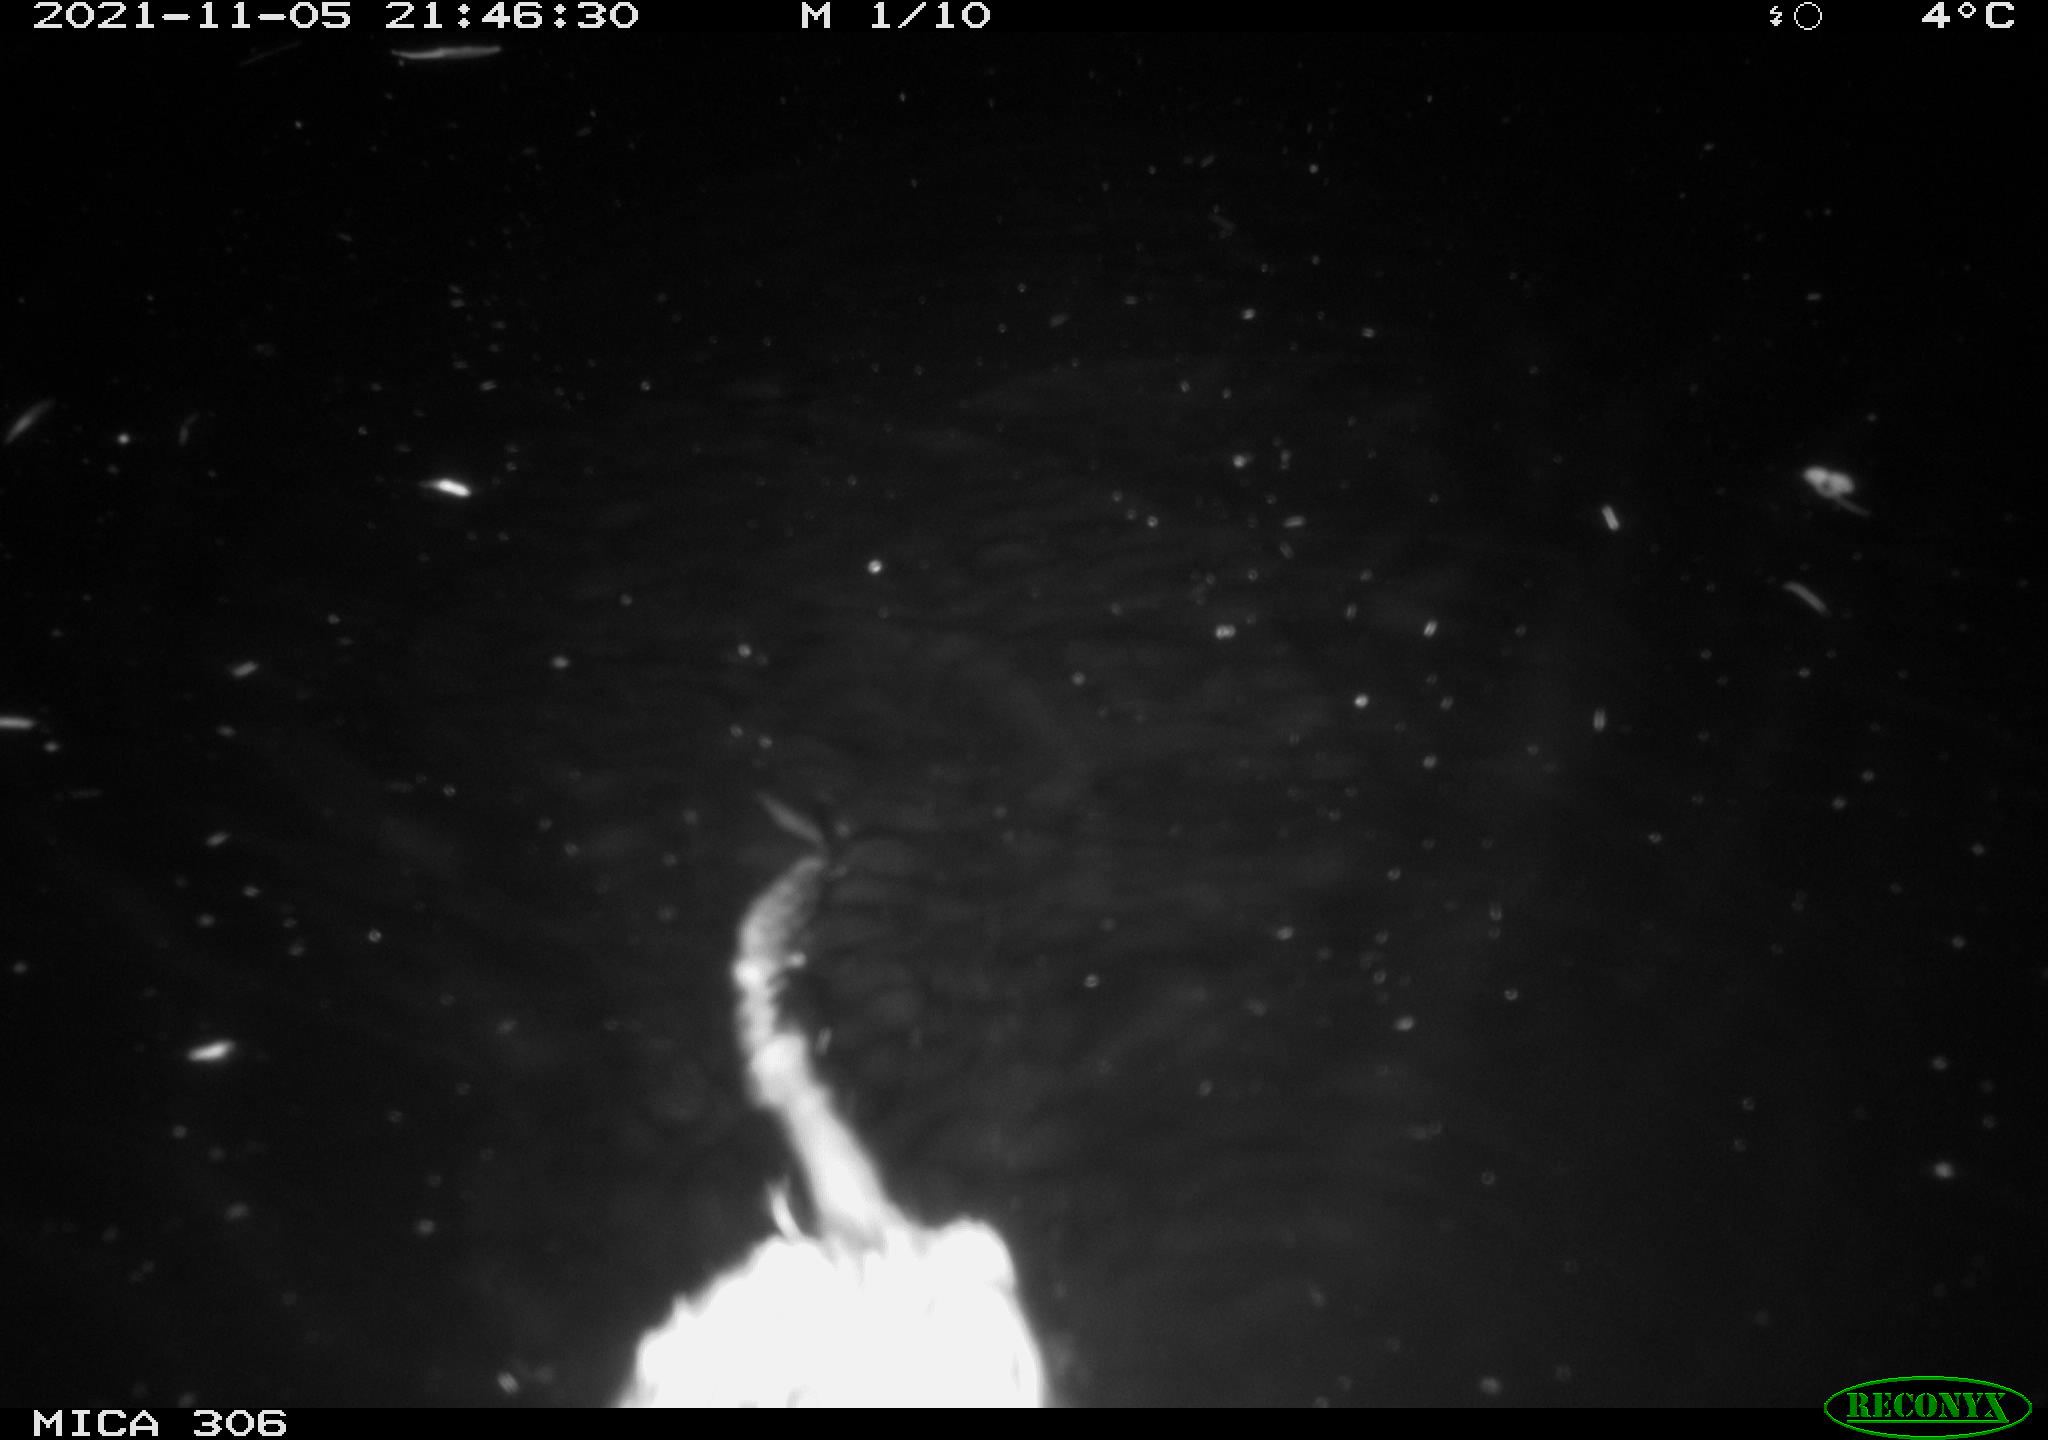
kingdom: Animalia
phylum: Chordata
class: Mammalia
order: Rodentia
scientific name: Rodentia
